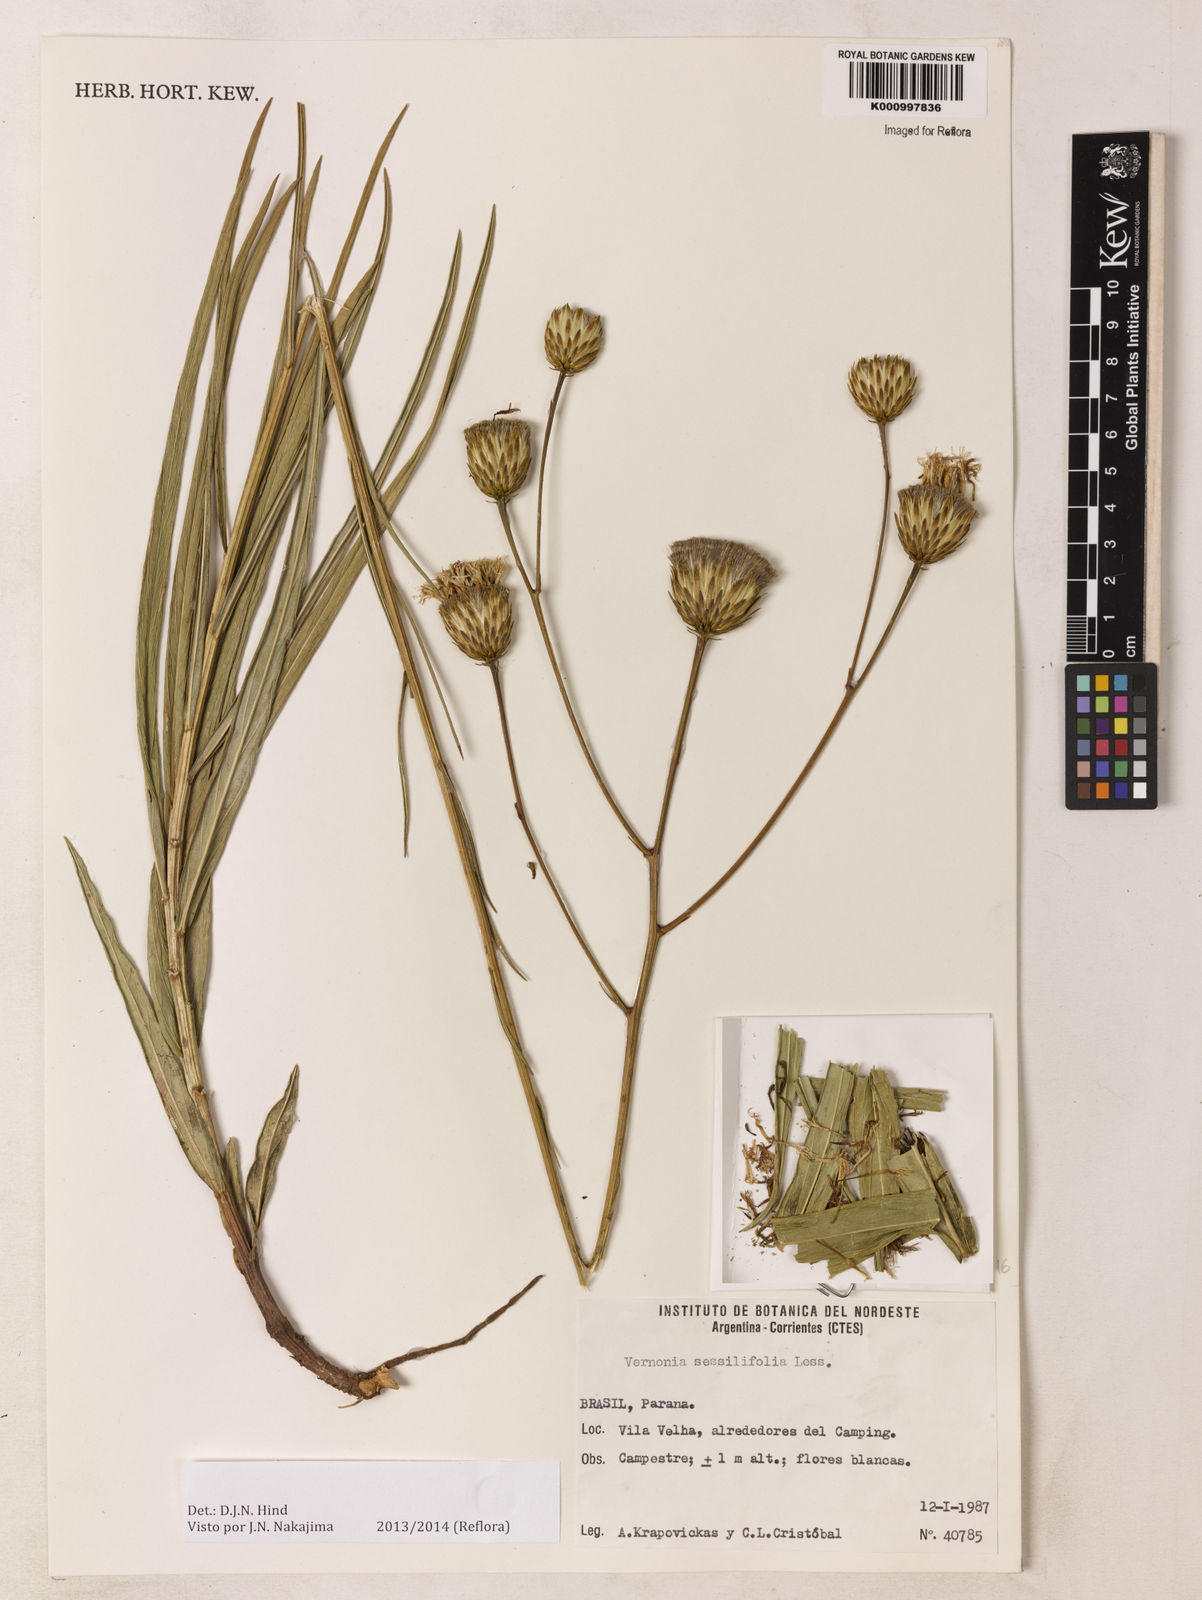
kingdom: Plantae
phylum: Tracheophyta
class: Magnoliopsida
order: Asterales
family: Asteraceae
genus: Lepidaploa
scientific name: Lepidaploa remotiflora
